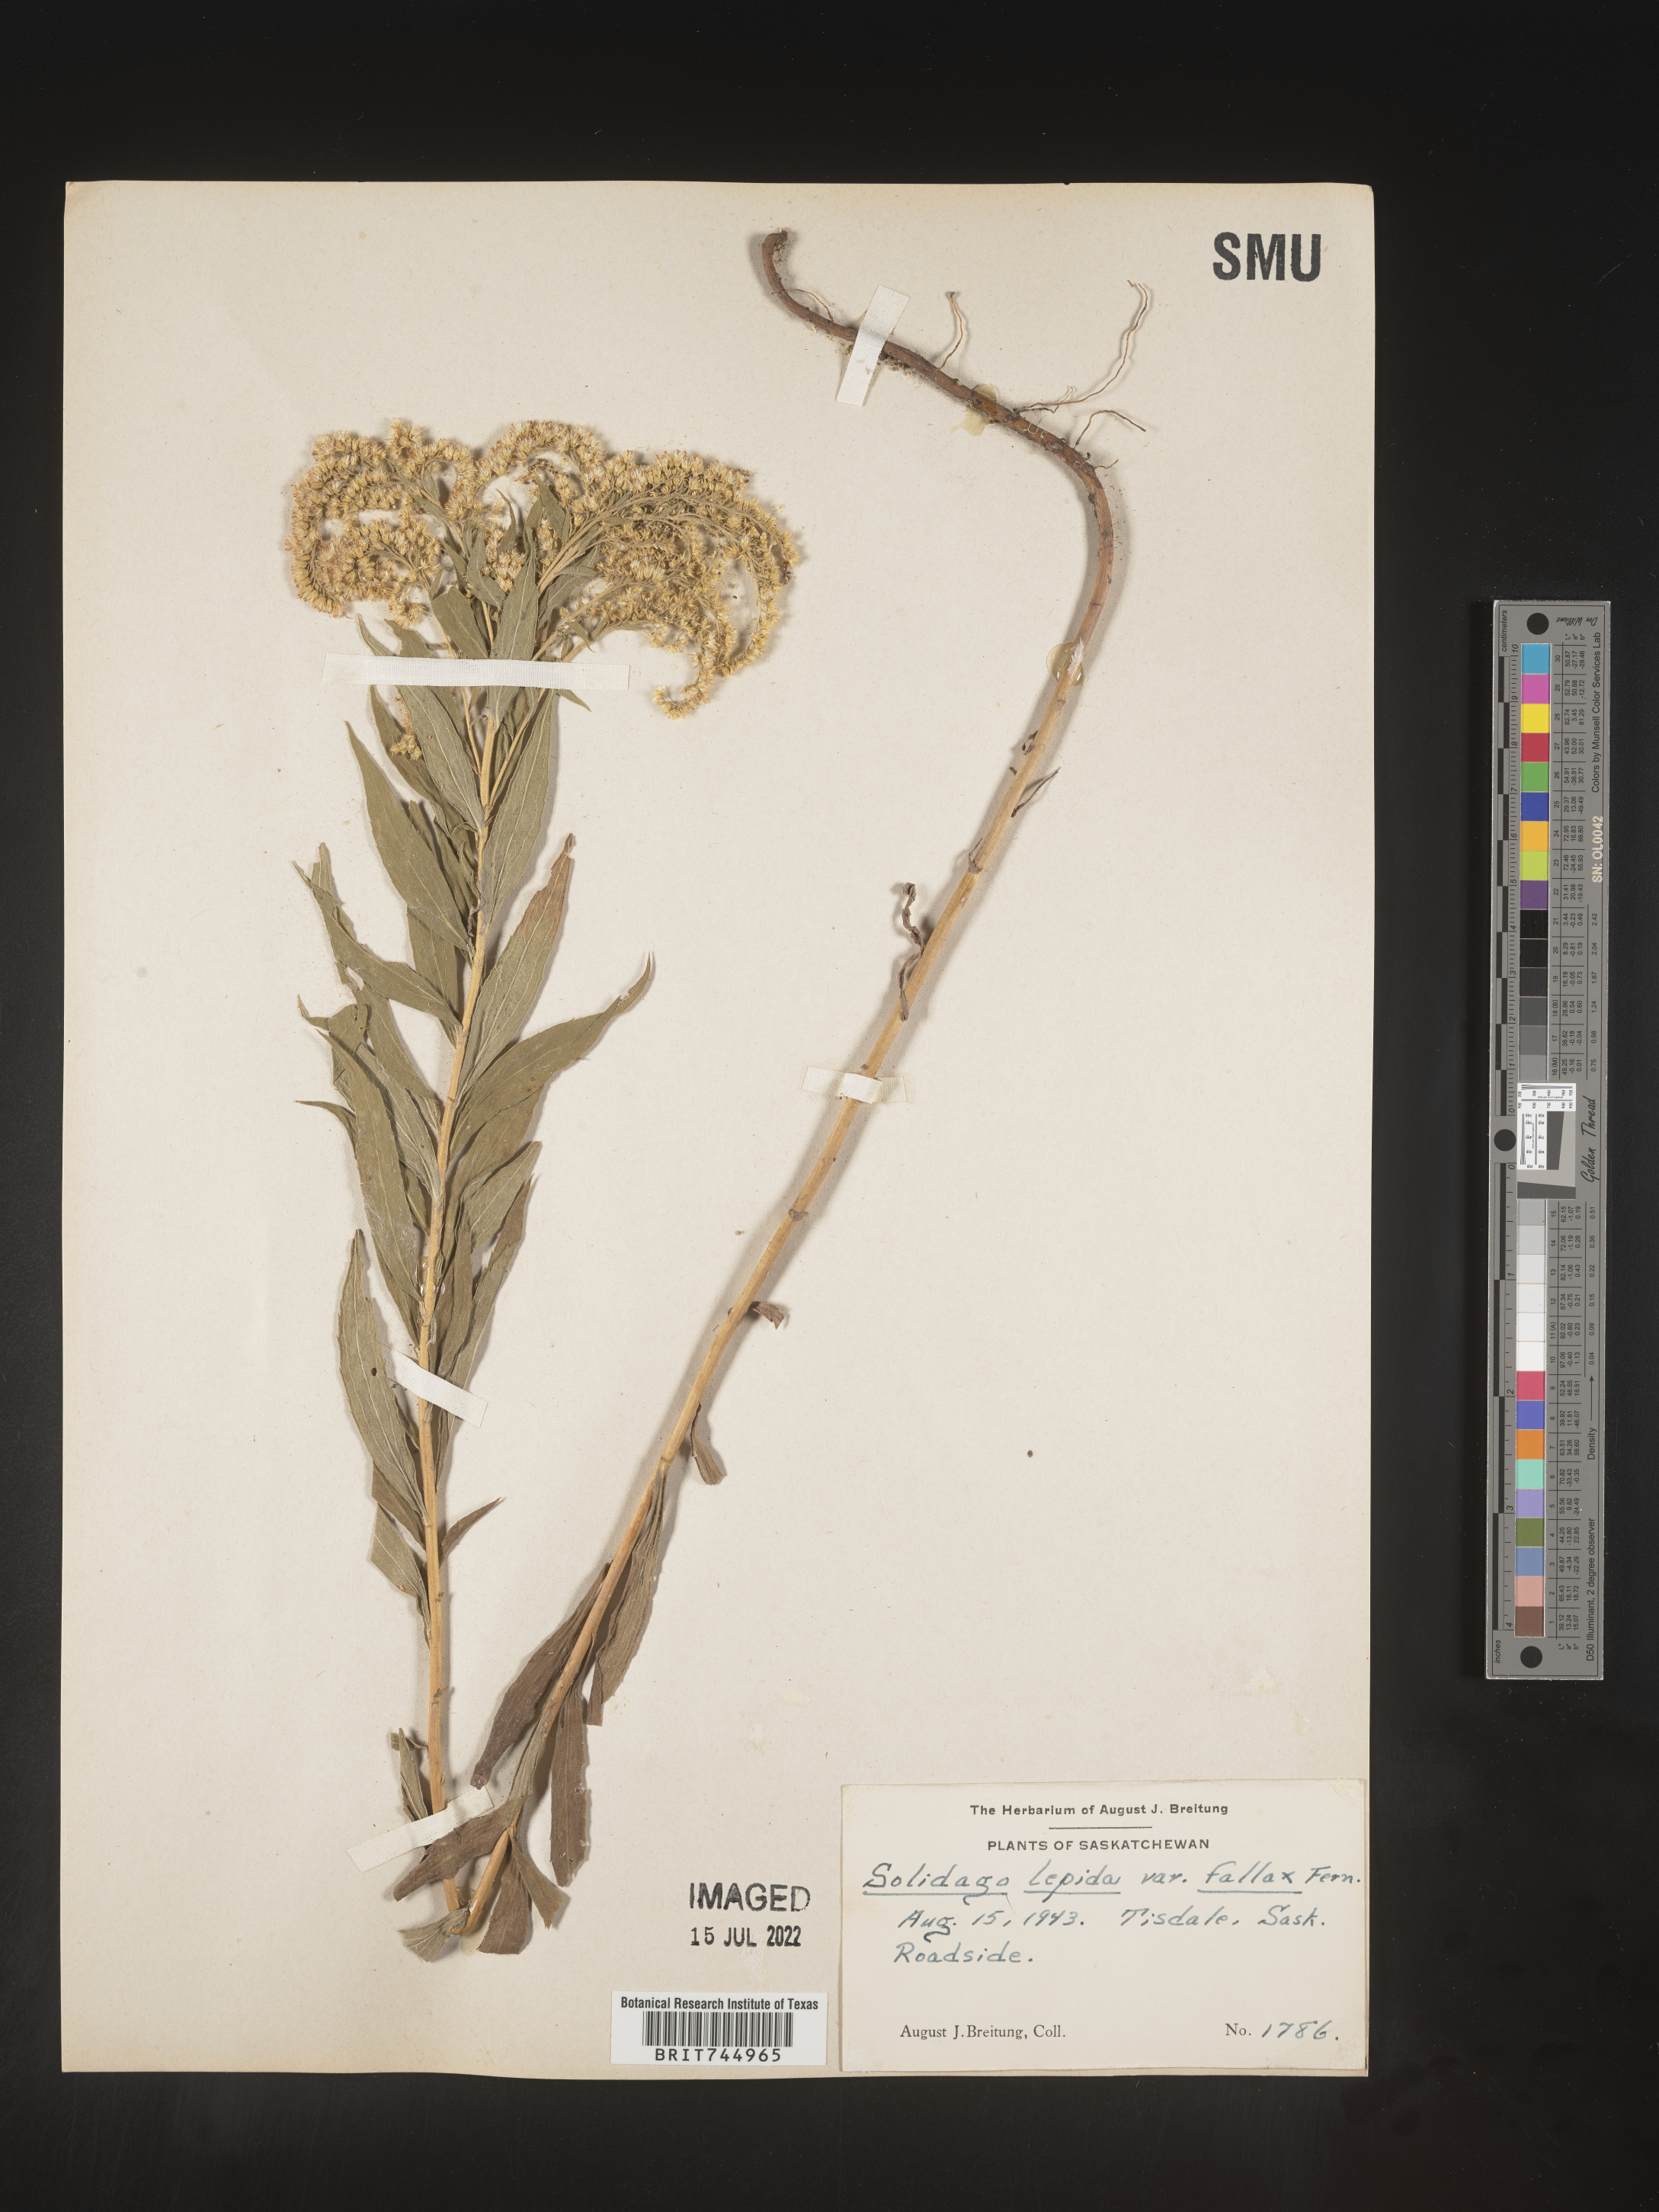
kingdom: Plantae
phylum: Tracheophyta
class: Magnoliopsida
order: Asterales
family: Asteraceae
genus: Solidago
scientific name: Solidago canadensis
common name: Canada goldenrod
